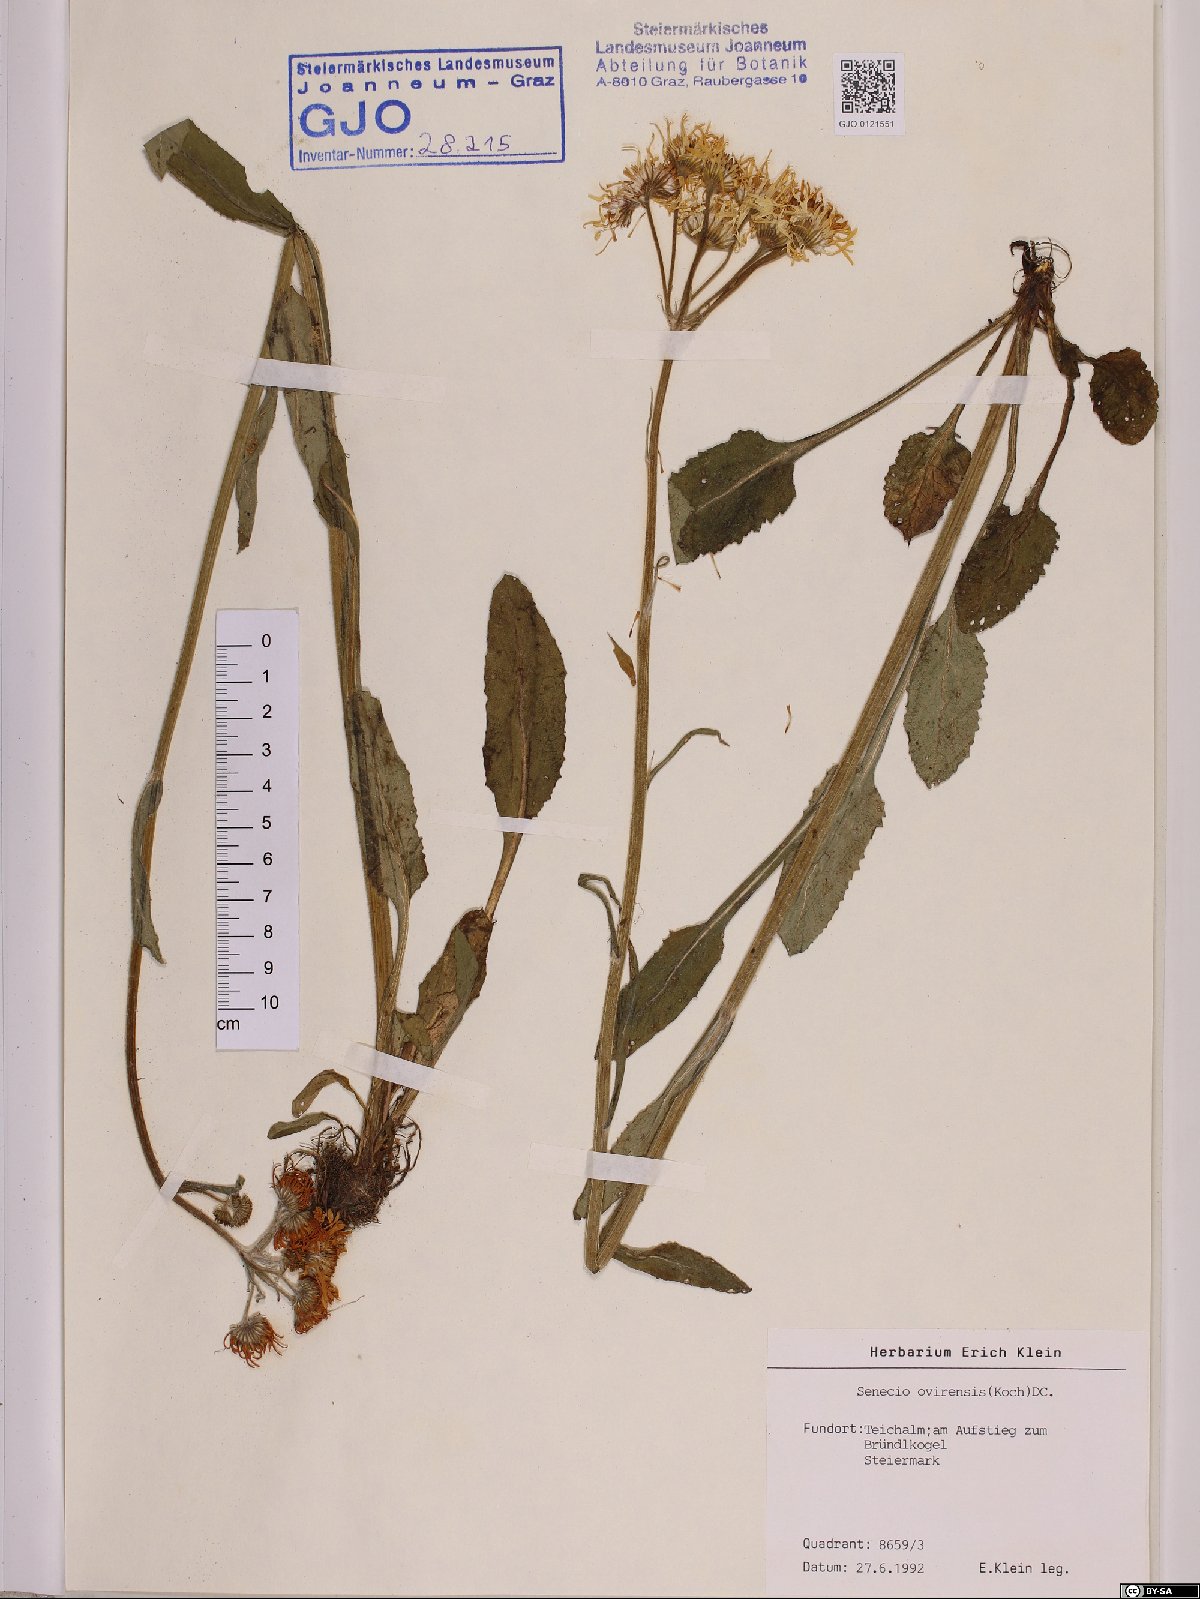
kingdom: Plantae
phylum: Tracheophyta
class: Magnoliopsida
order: Asterales
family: Asteraceae
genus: Tephroseris
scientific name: Tephroseris longifolia
